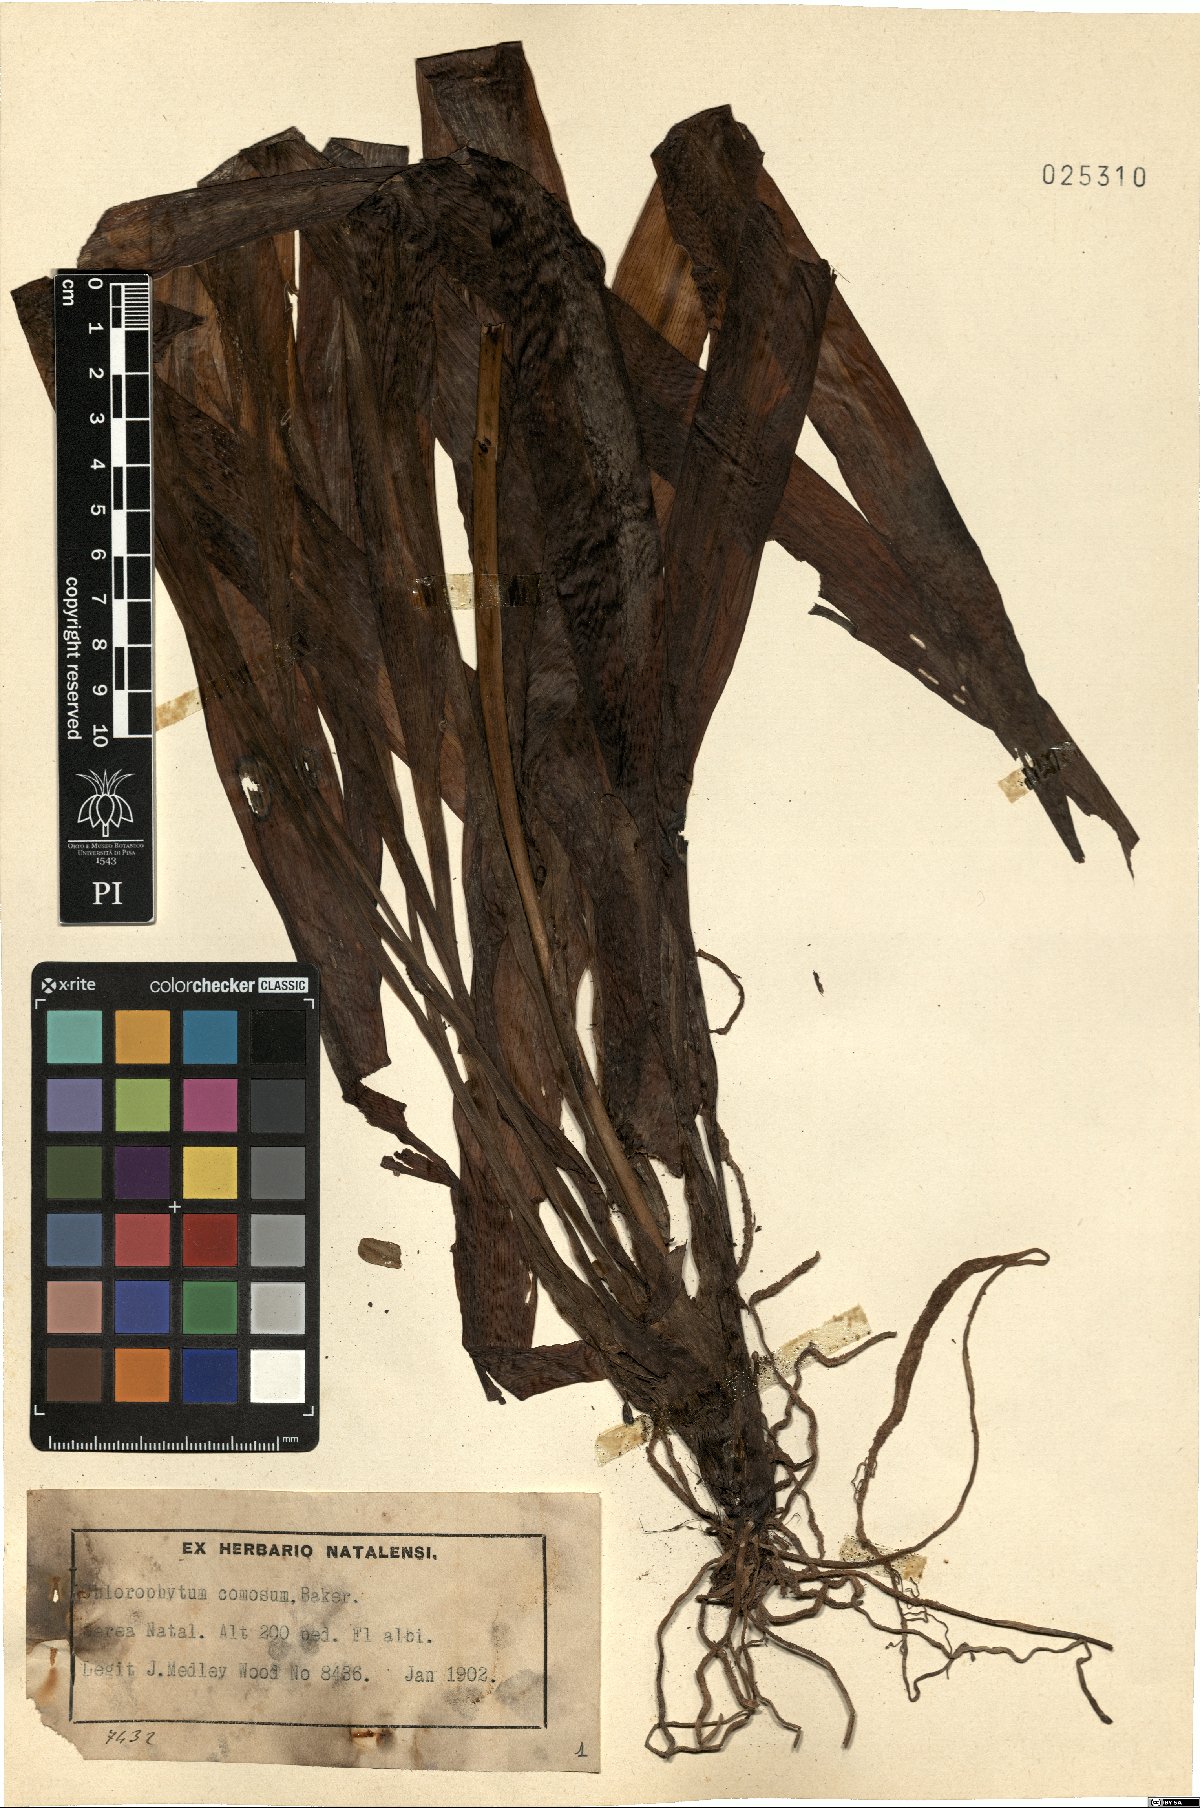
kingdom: Plantae
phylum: Tracheophyta
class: Liliopsida
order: Asparagales
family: Asparagaceae
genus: Chlorophytum
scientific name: Chlorophytum comosum
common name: Spider plant
